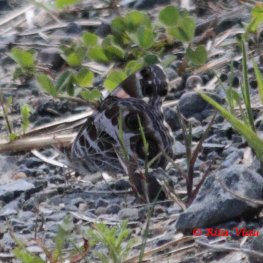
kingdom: Animalia
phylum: Arthropoda
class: Insecta
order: Lepidoptera
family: Nymphalidae
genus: Vanessa
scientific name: Vanessa virginiensis
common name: American Lady
